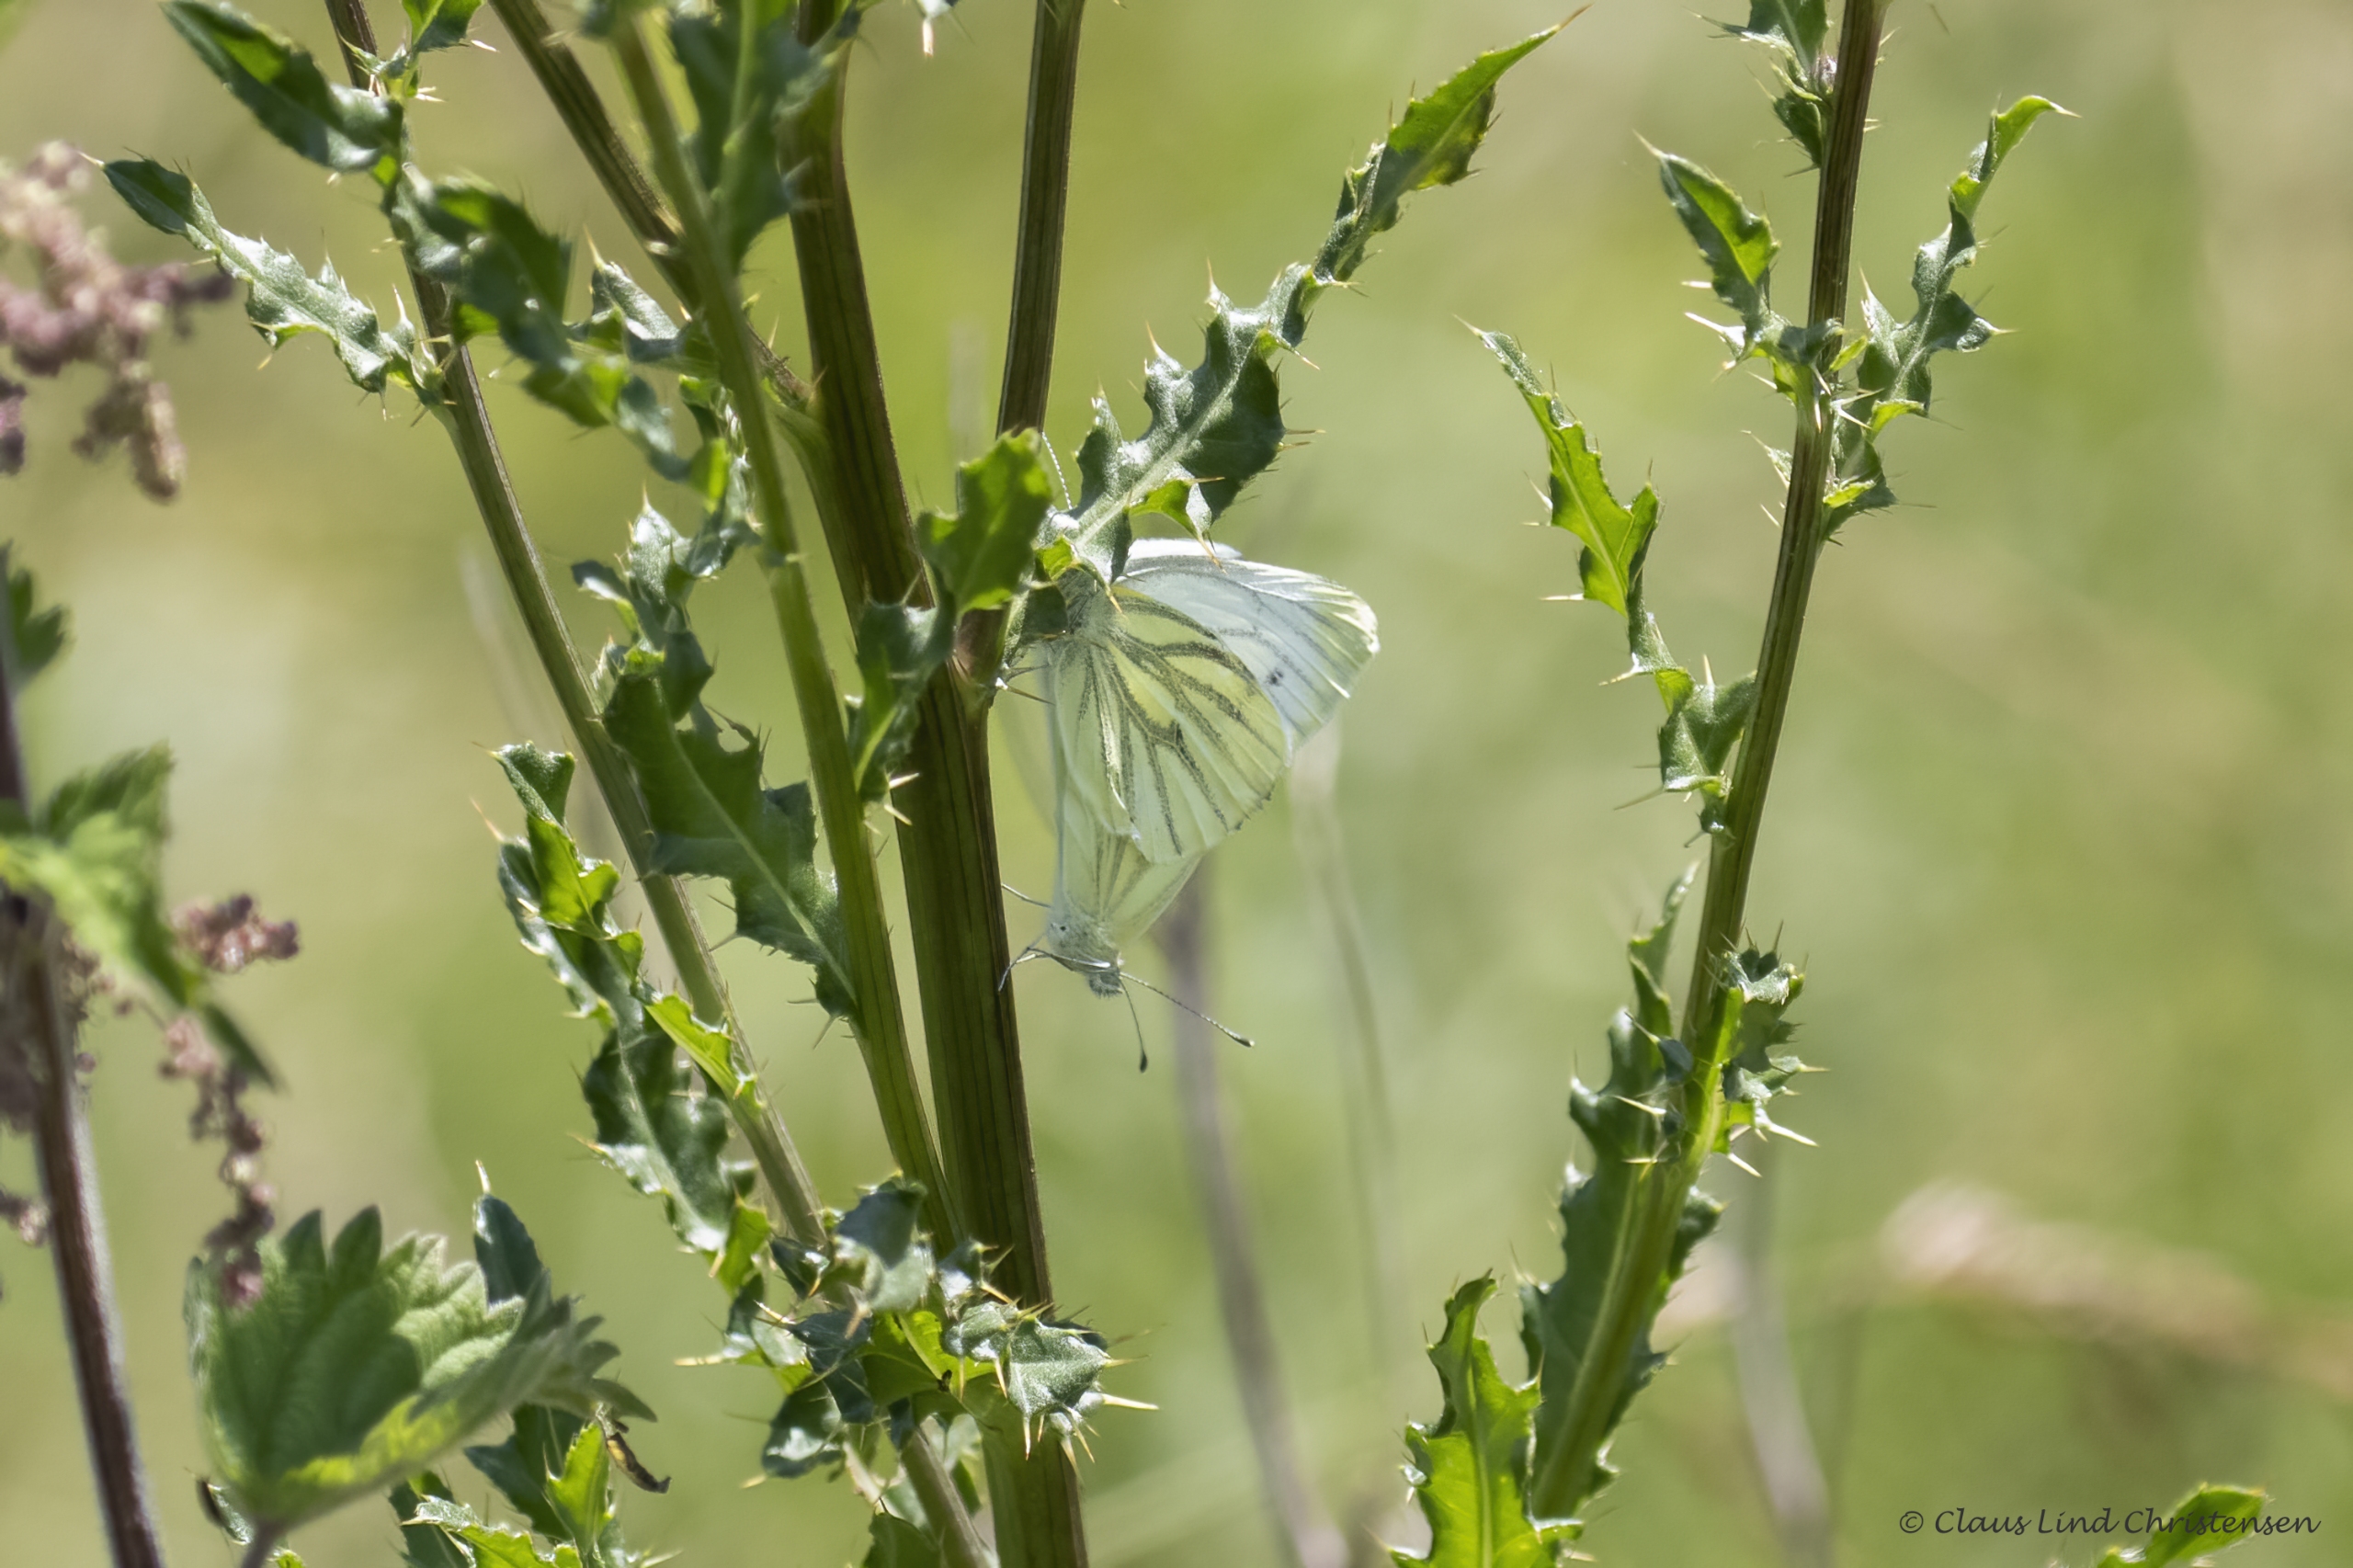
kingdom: Animalia
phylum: Arthropoda
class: Insecta
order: Lepidoptera
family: Pieridae
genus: Pieris
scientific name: Pieris napi
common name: Grønåret kålsommerfugl
